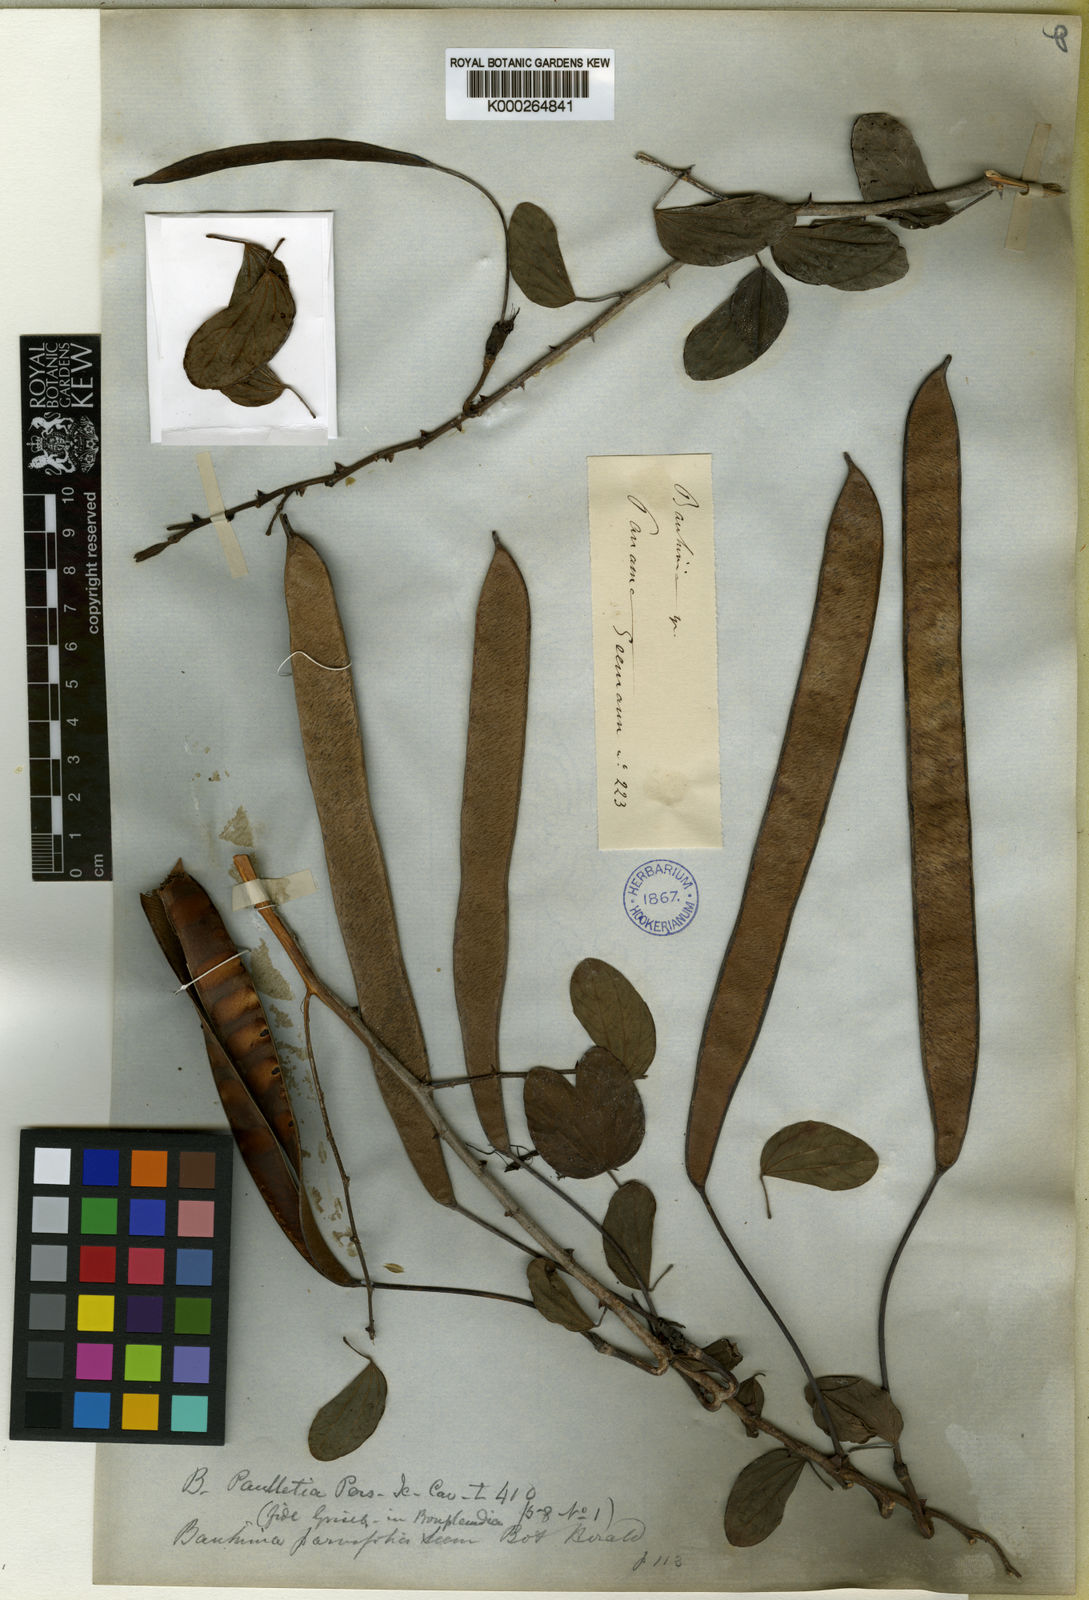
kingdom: Plantae
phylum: Tracheophyta
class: Magnoliopsida
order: Fabales
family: Fabaceae
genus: Bauhinia
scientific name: Bauhinia pauletia
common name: Railway-fence bauhinia
